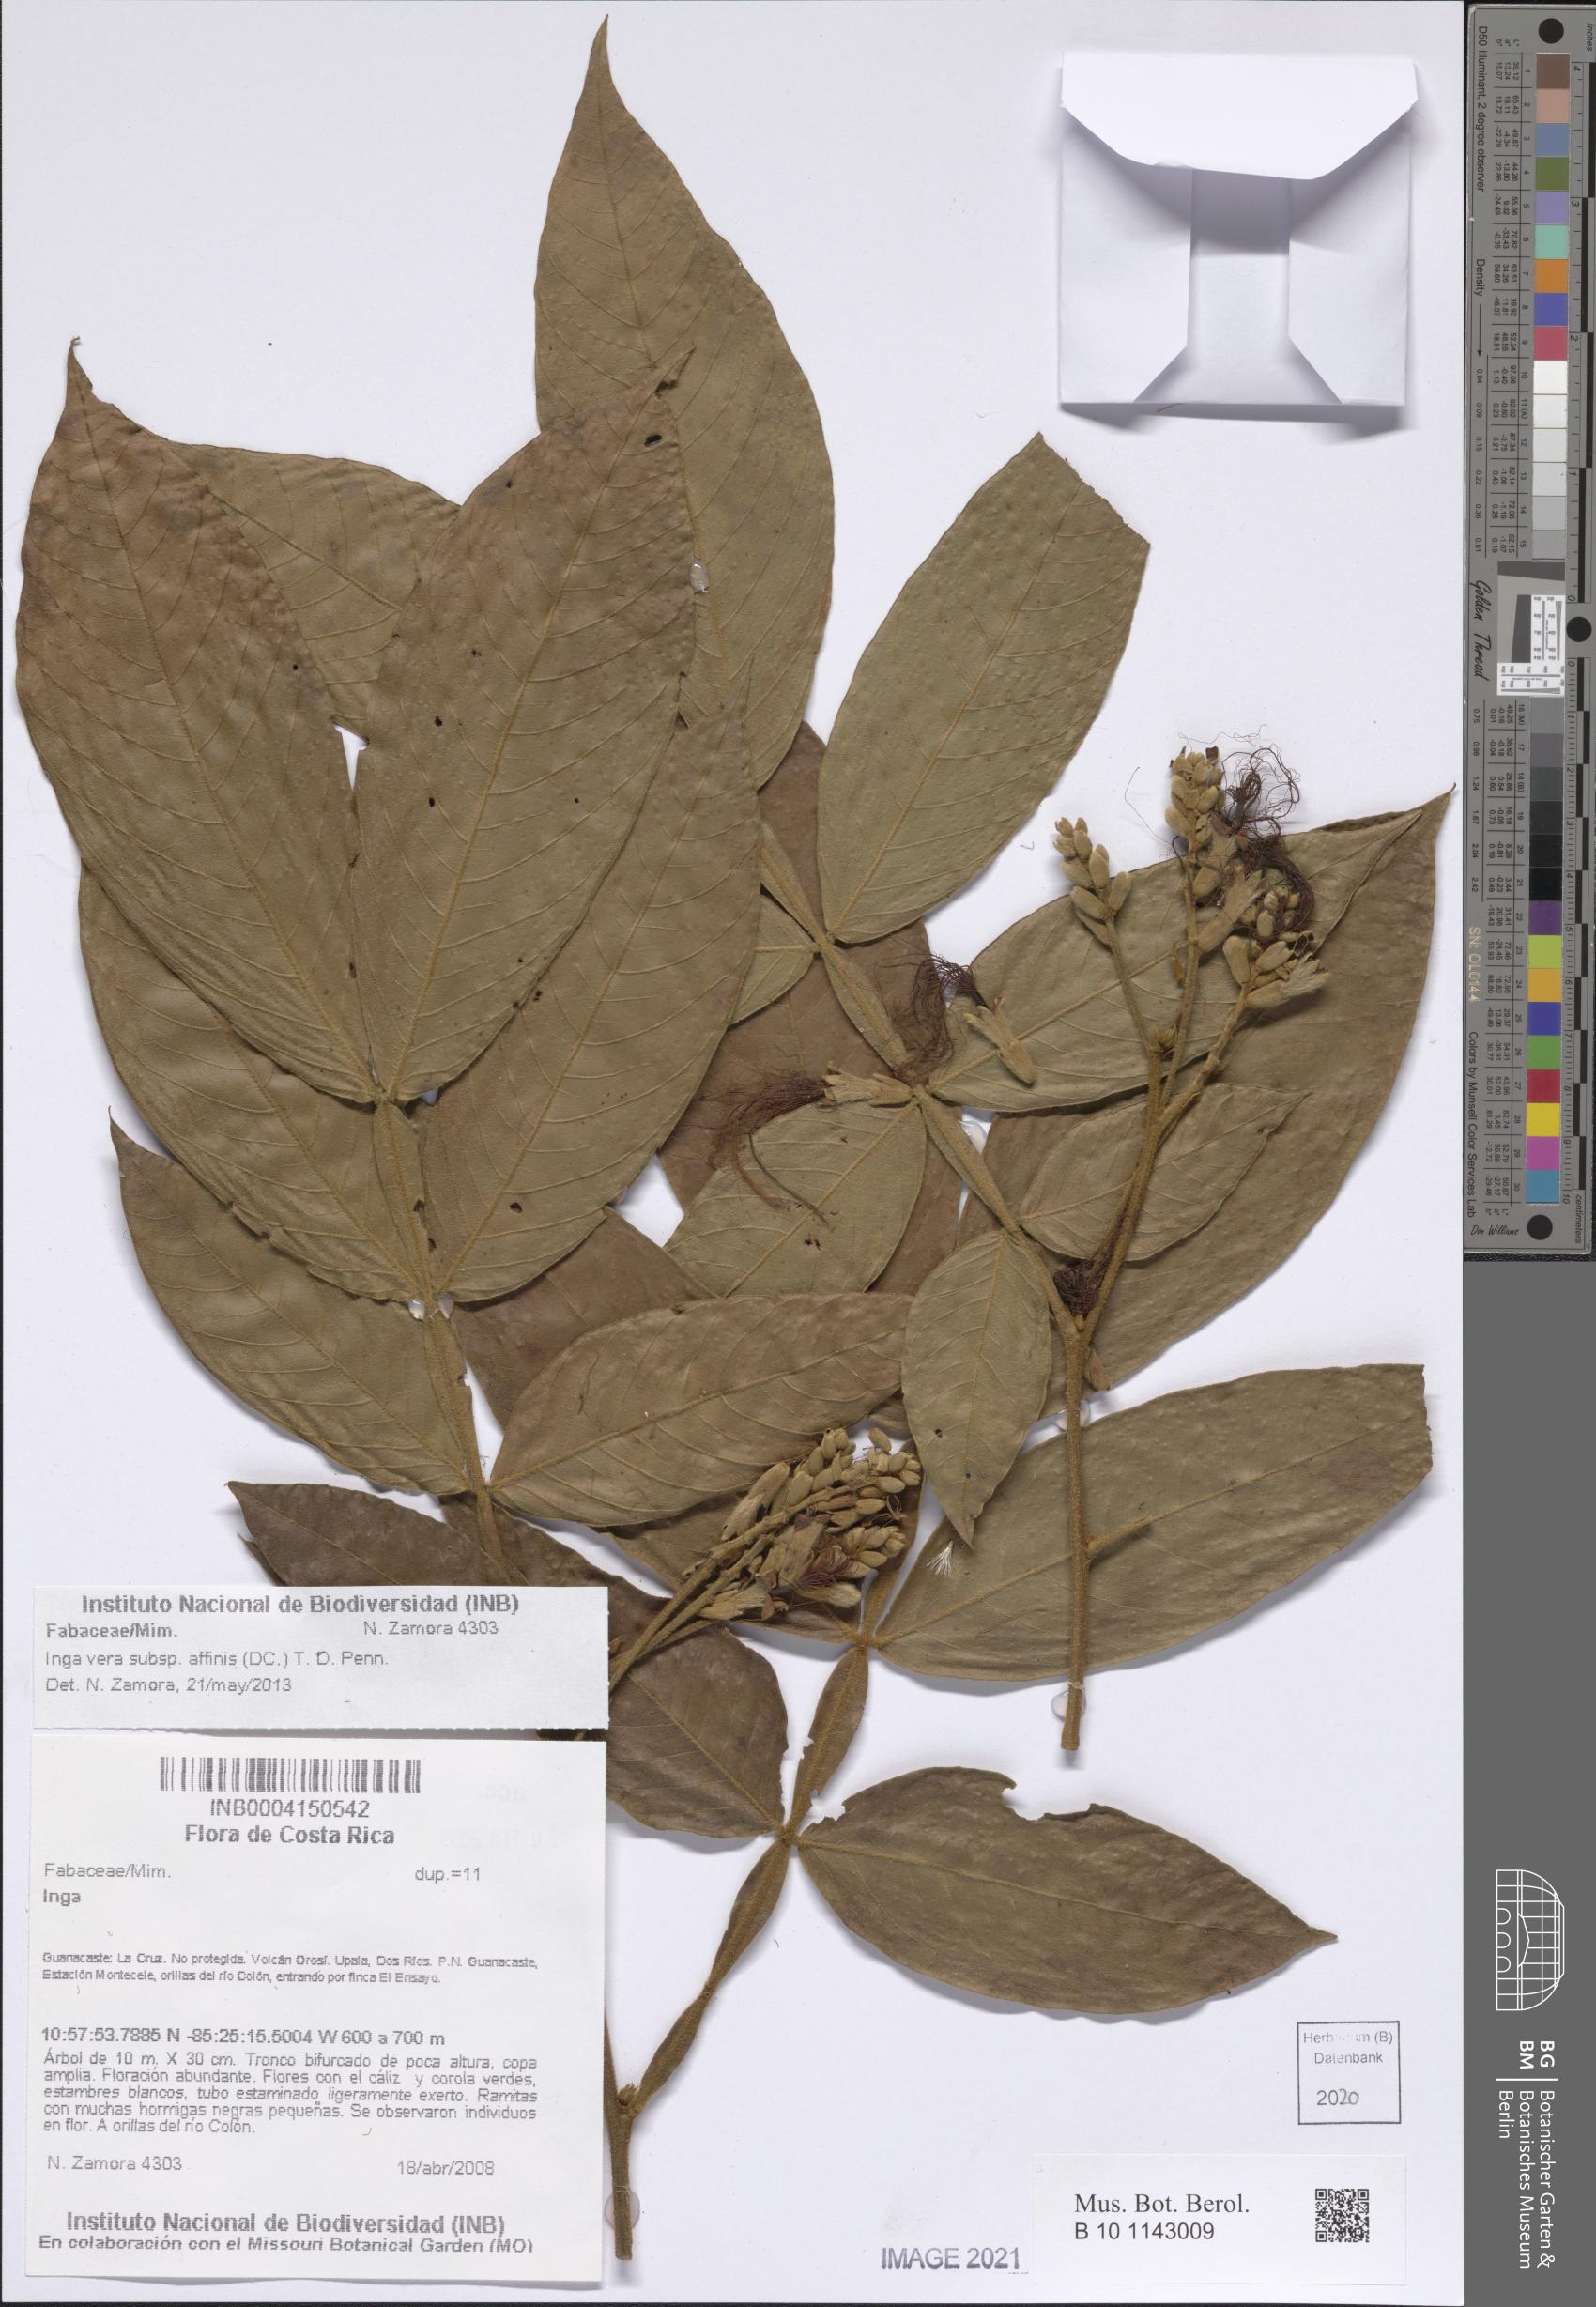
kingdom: Plantae
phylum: Tracheophyta
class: Magnoliopsida
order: Fabales
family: Fabaceae
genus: Inga
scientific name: Inga affinis
